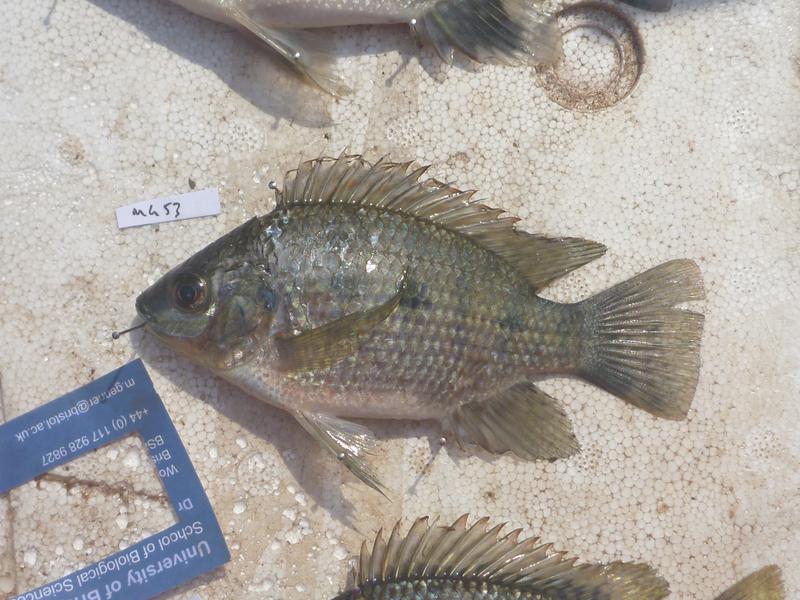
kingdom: Animalia
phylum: Chordata
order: Perciformes
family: Cichlidae
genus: Oreochromis
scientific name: Oreochromis upembae
